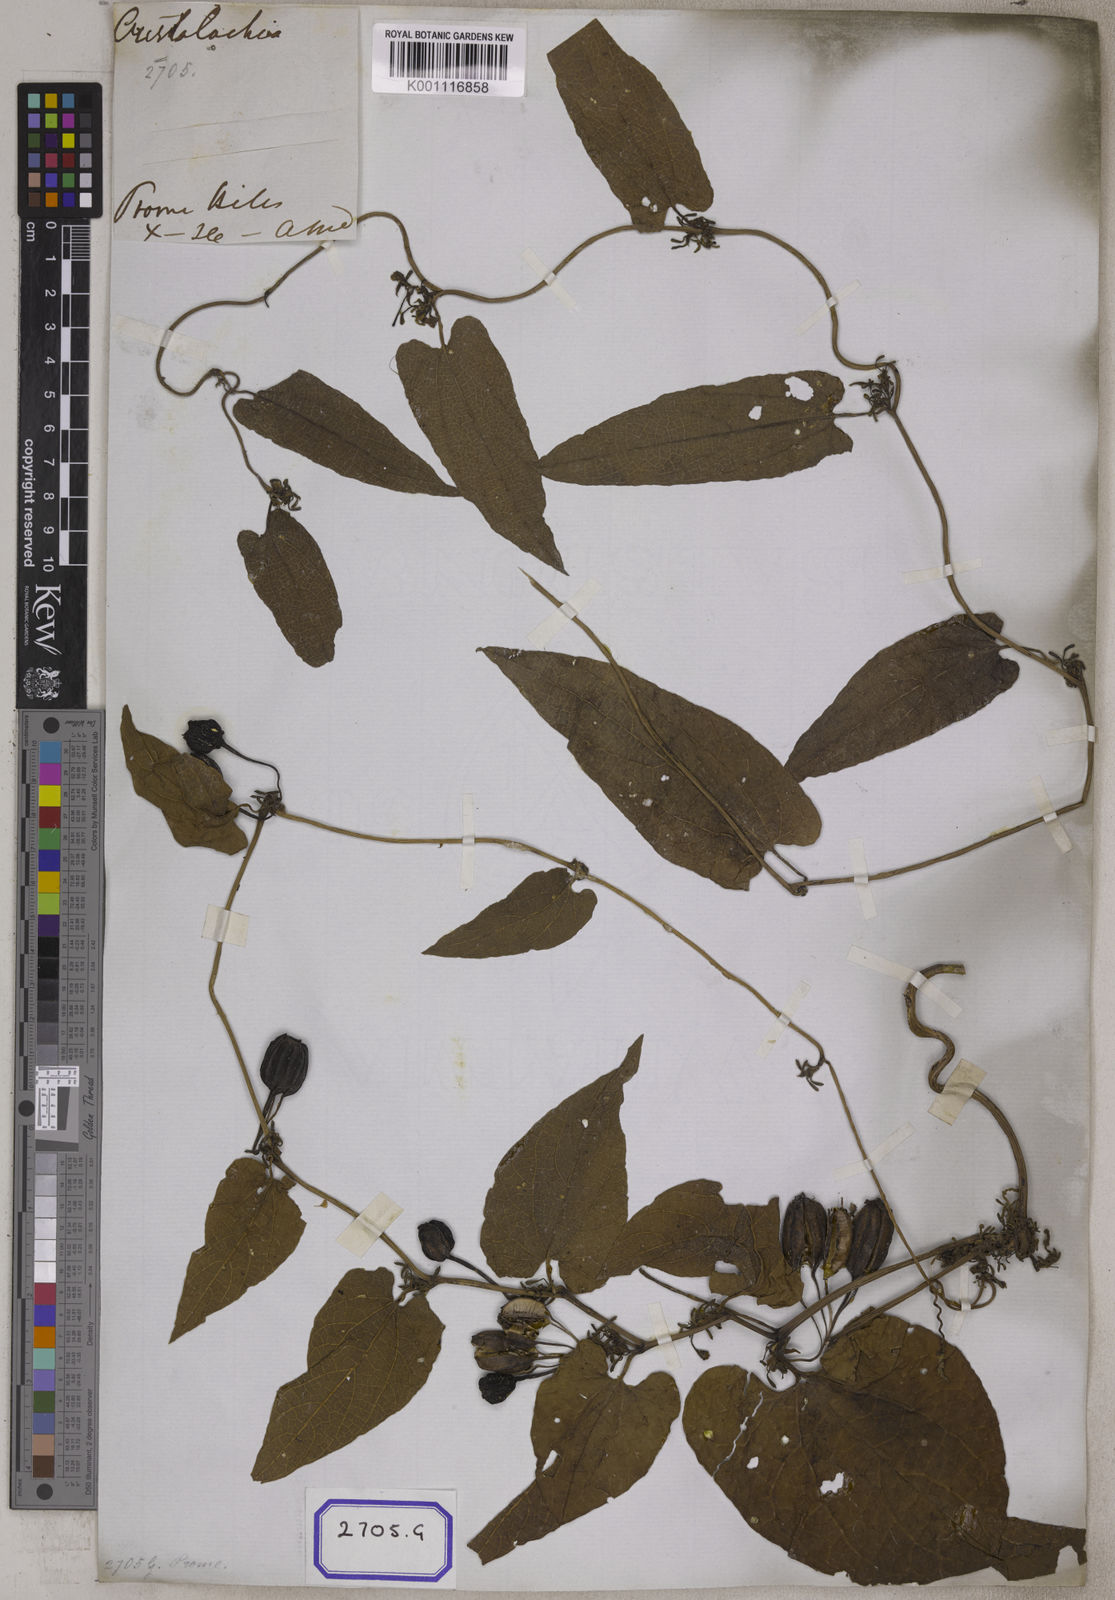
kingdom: Plantae
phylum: Tracheophyta
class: Magnoliopsida
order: Piperales
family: Aristolochiaceae
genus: Aristolochia
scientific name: Aristolochia acuminata
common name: Indian birthwort
